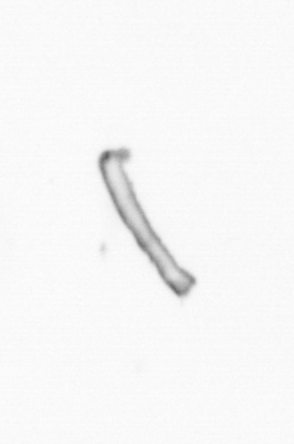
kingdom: Chromista
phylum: Ochrophyta
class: Bacillariophyceae
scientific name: Bacillariophyceae
